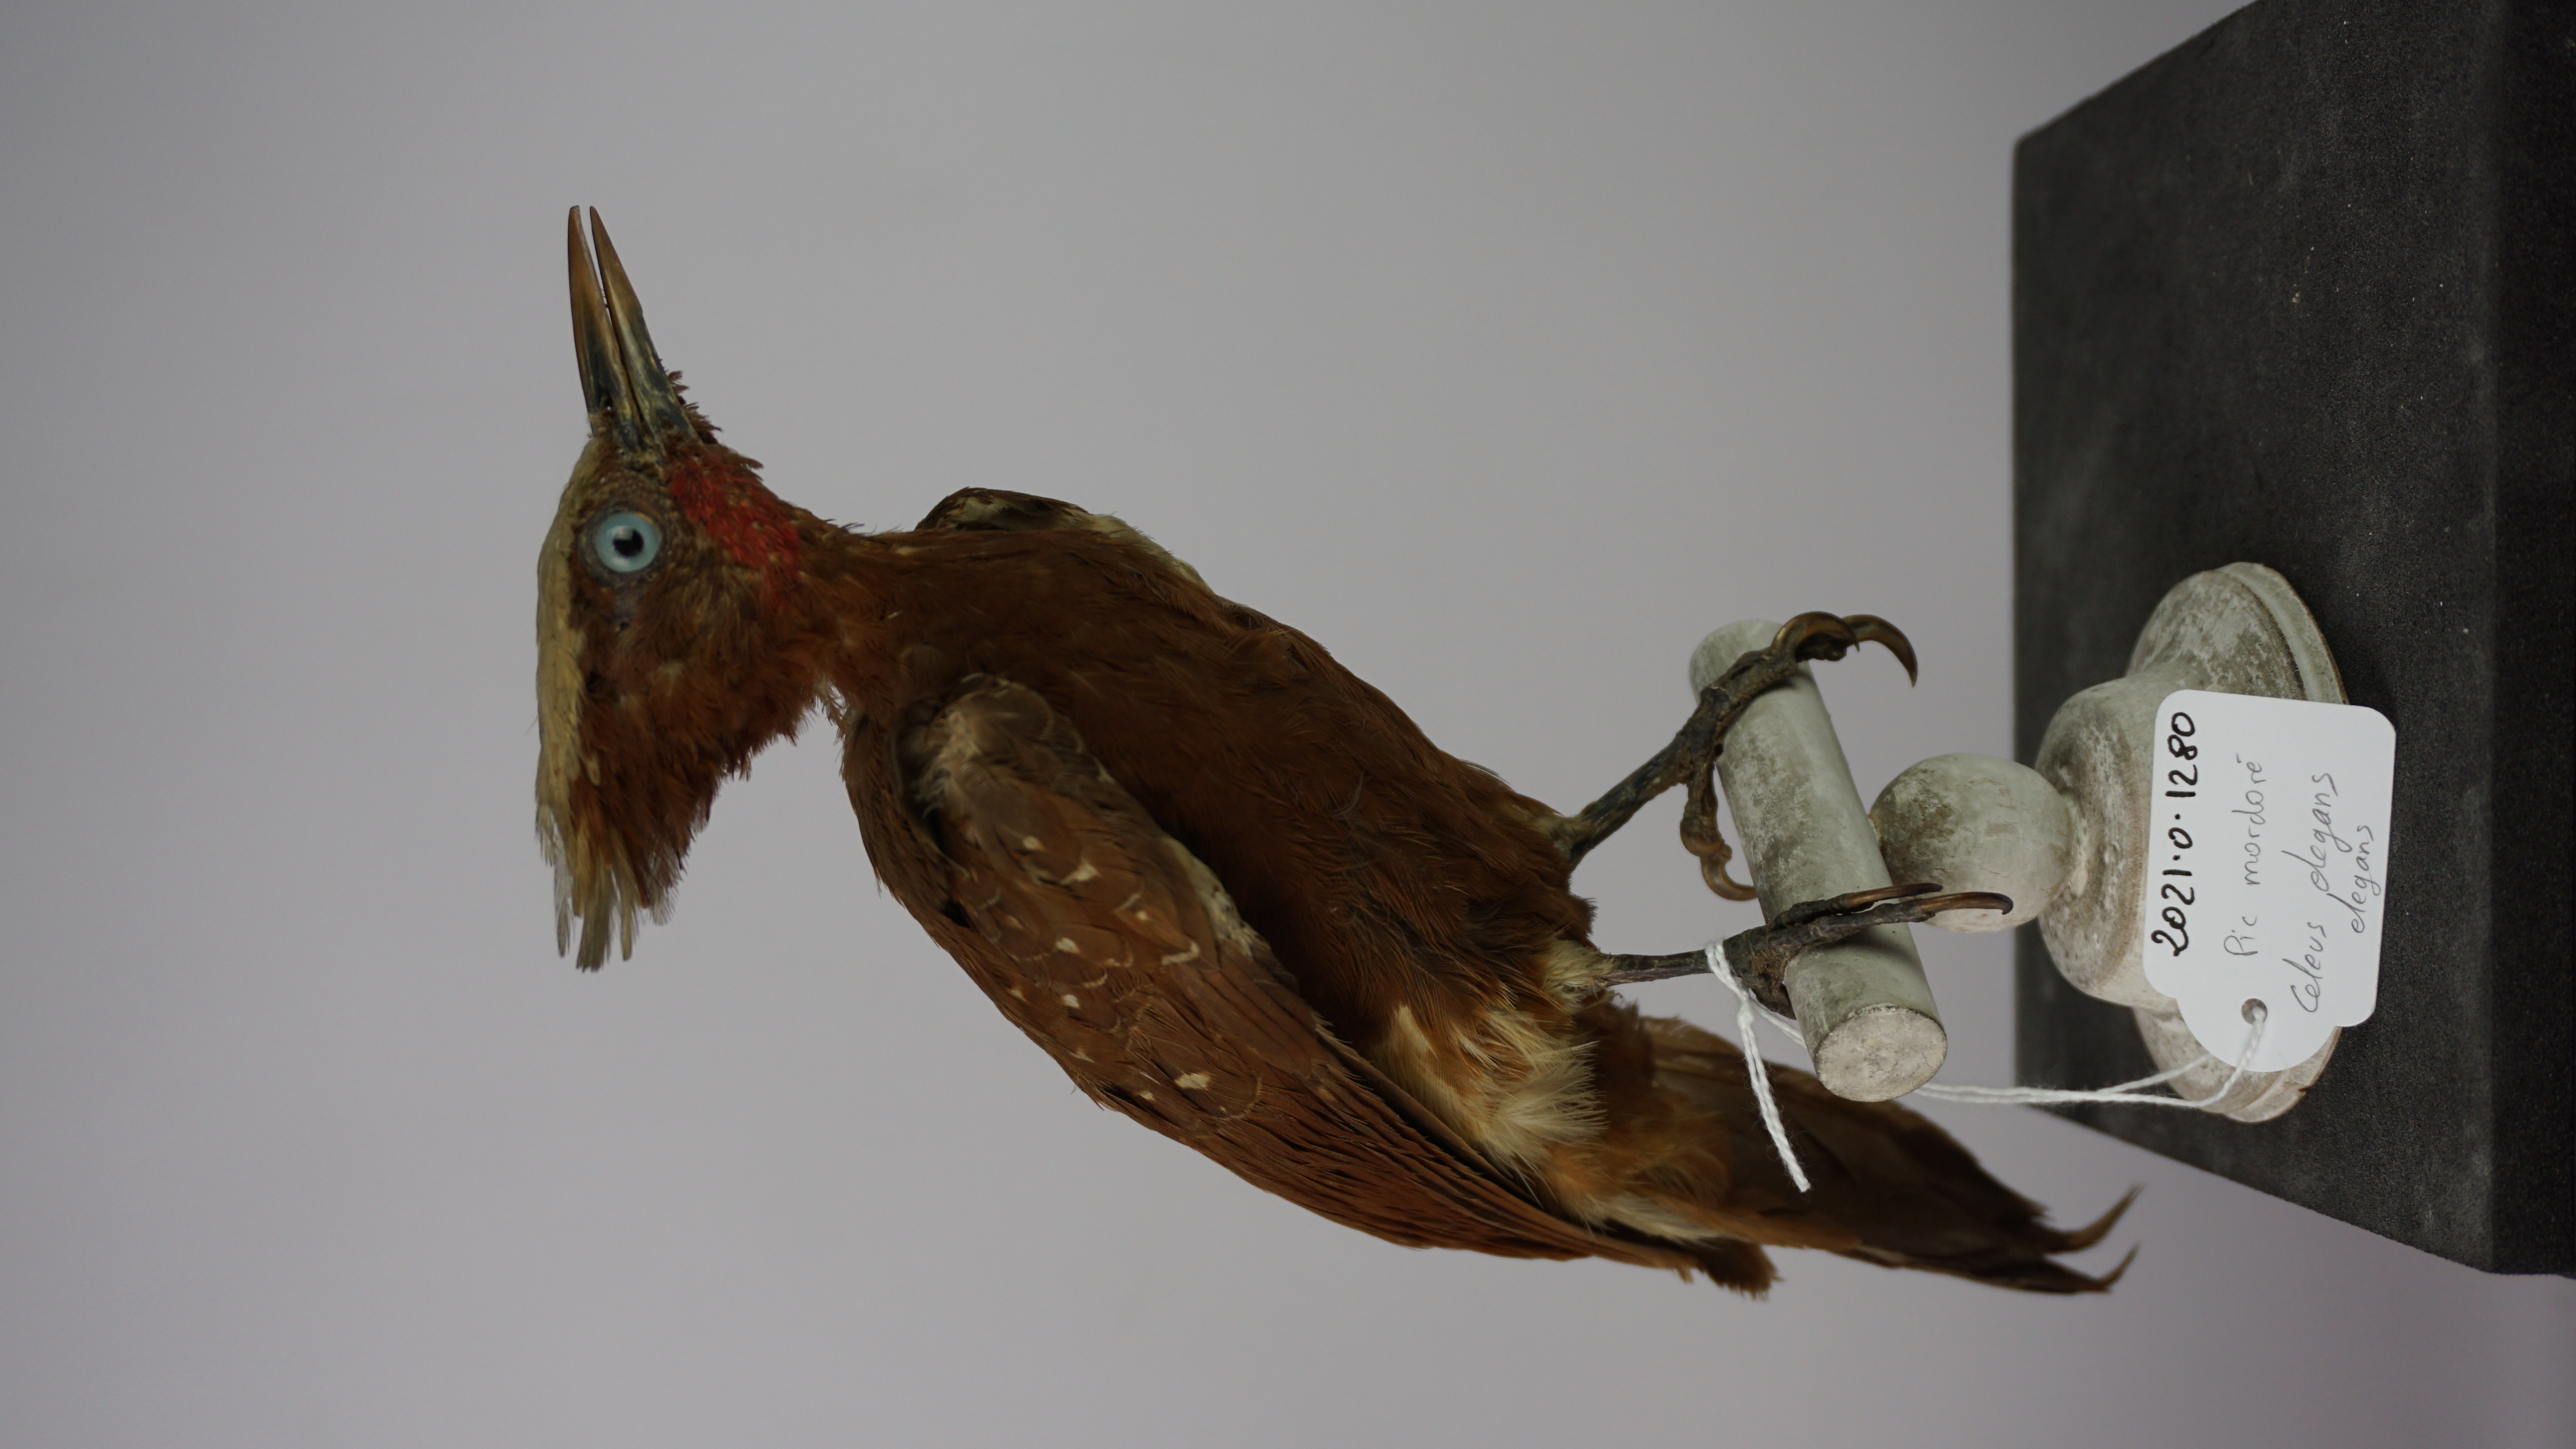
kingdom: Animalia
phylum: Chordata
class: Aves
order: Piciformes
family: Picidae
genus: Celeus
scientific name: Celeus elegans
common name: Chestnut woodpecker
